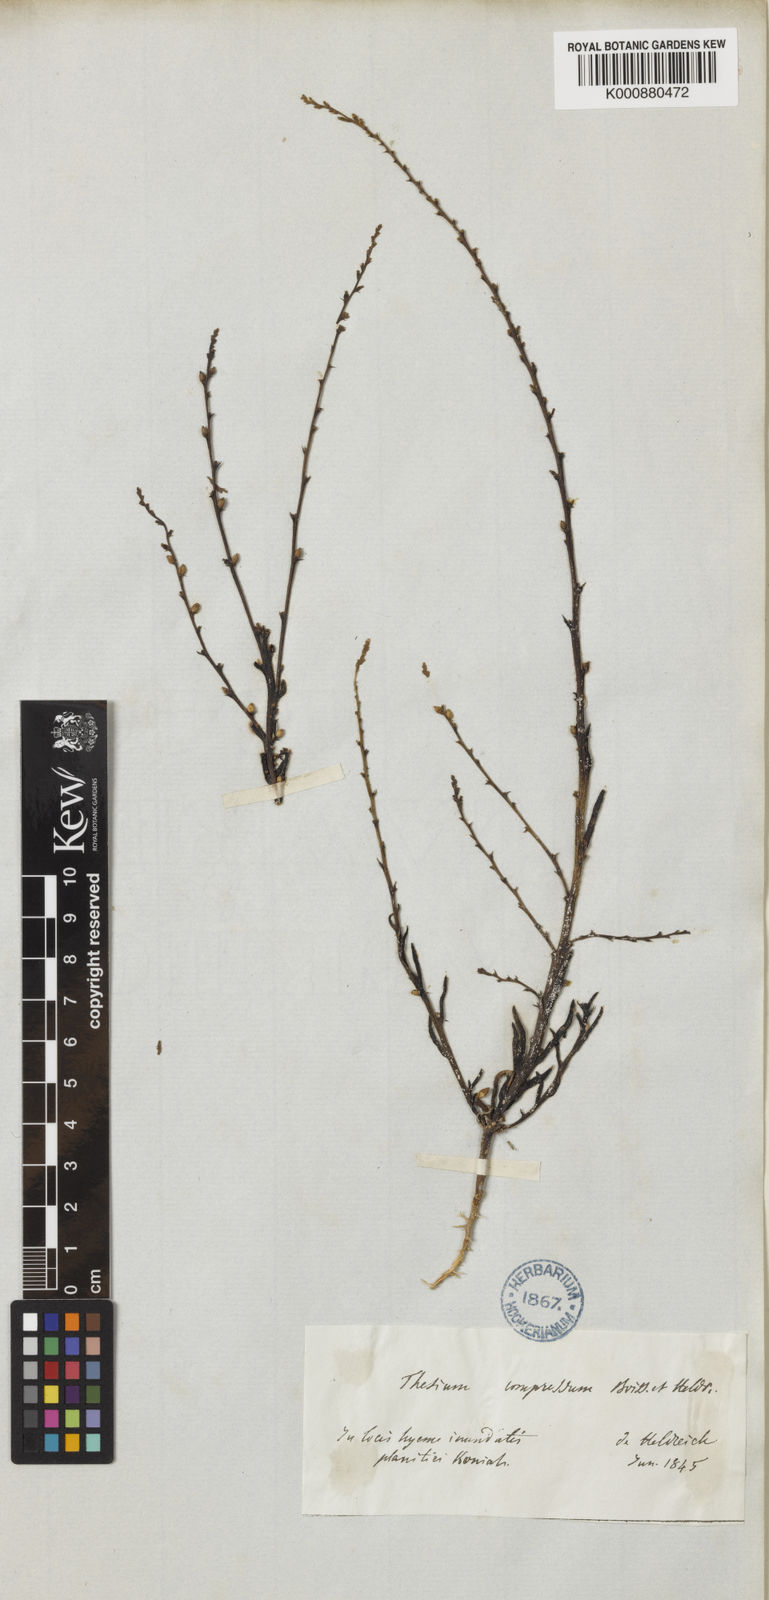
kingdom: Plantae
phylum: Tracheophyta
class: Magnoliopsida
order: Santalales
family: Thesiaceae
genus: Thesium
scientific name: Thesium compressum
